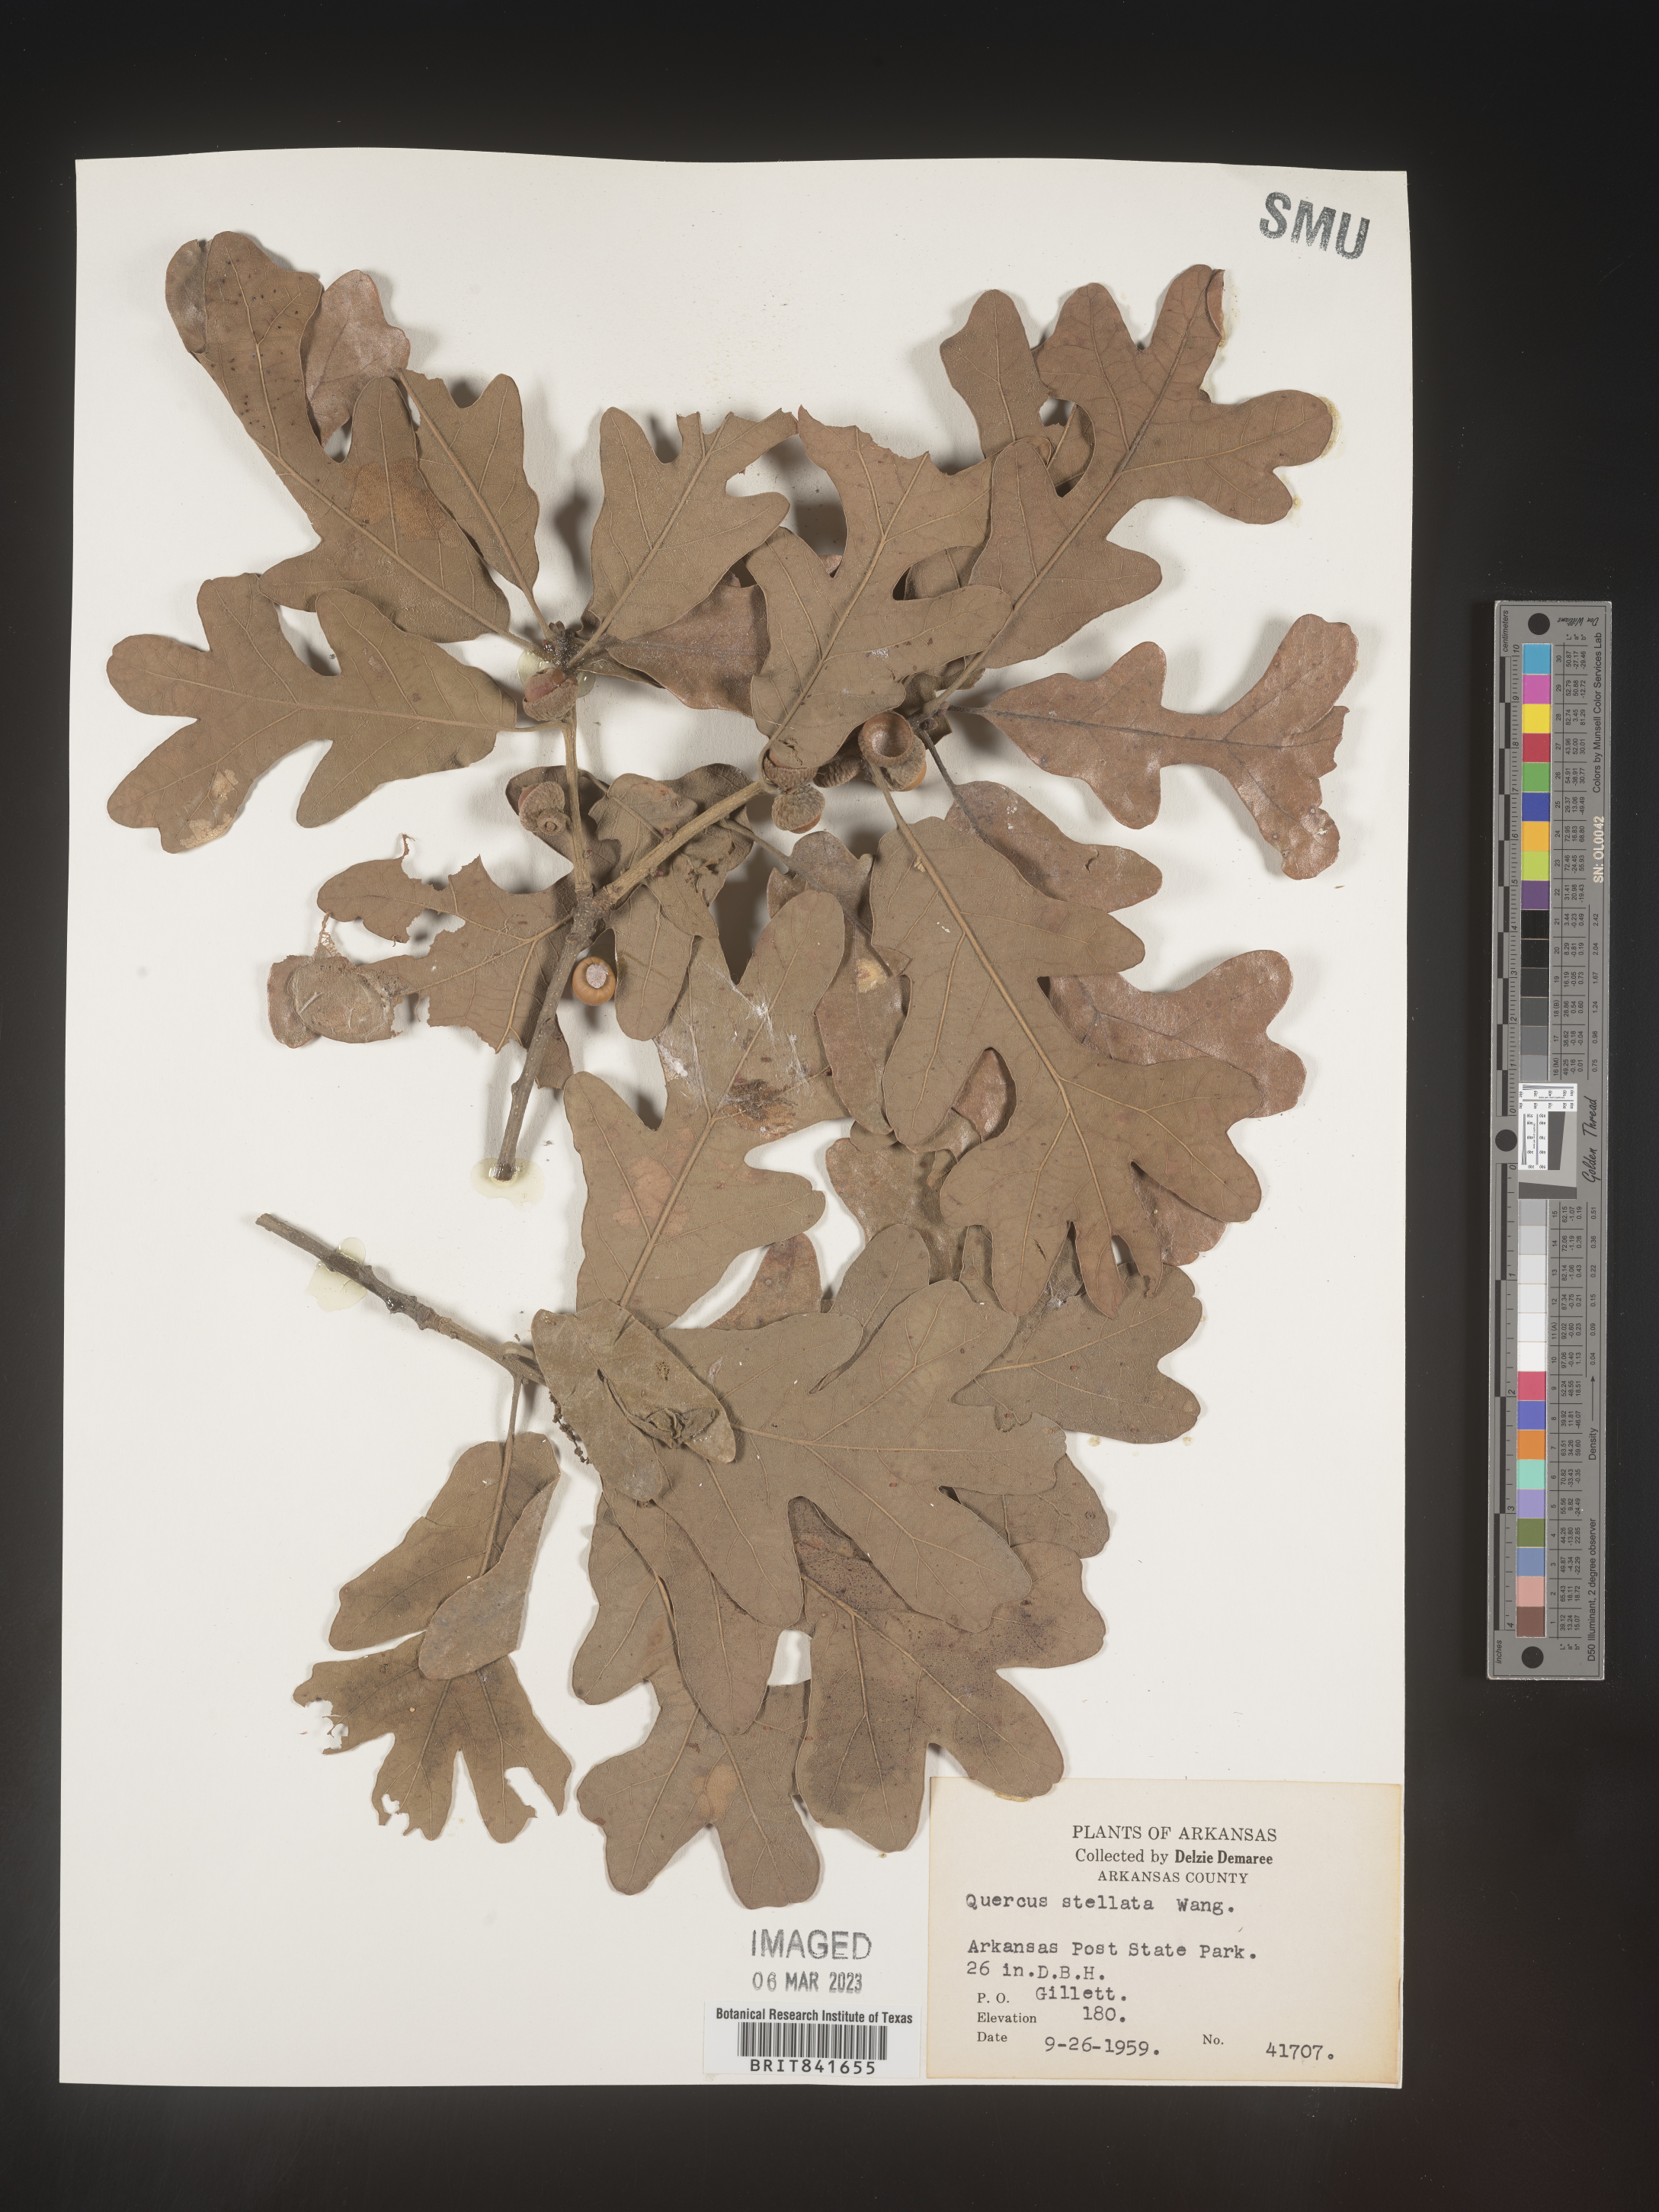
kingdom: Plantae
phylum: Tracheophyta
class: Magnoliopsida
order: Fagales
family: Fagaceae
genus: Quercus
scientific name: Quercus stellata
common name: Post oak
